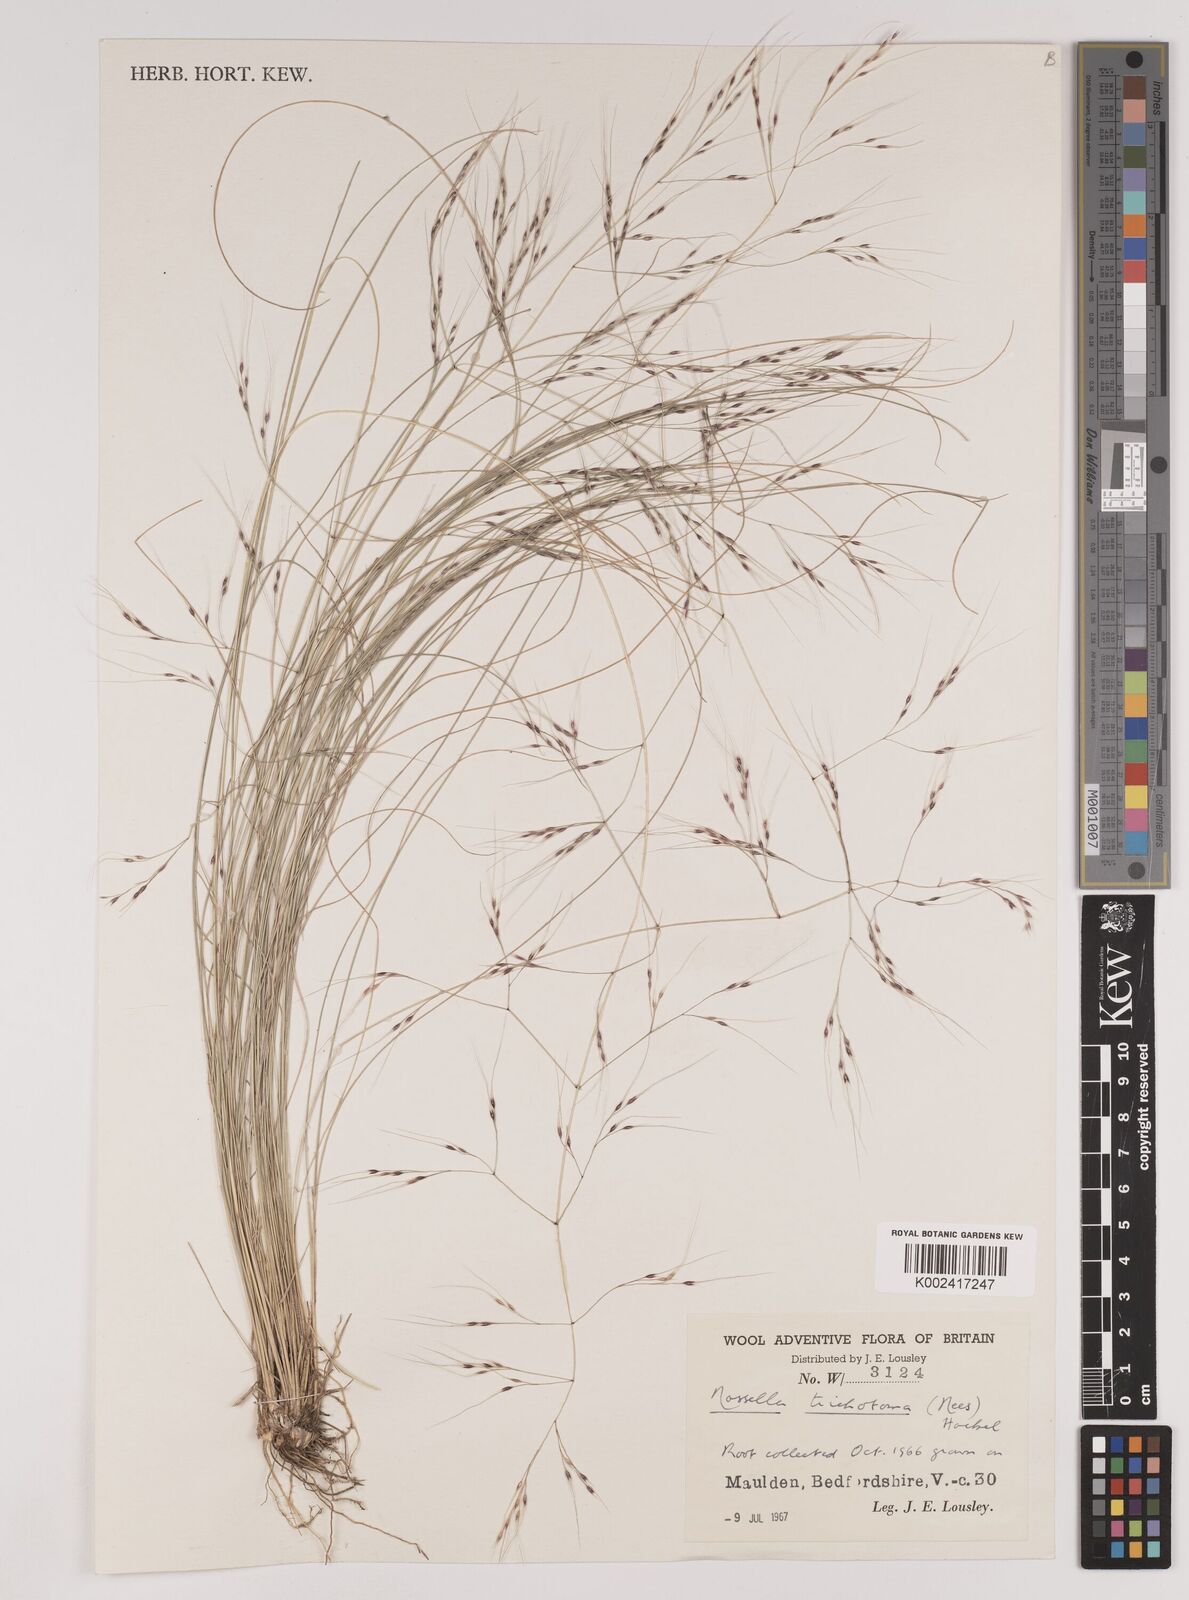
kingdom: Plantae
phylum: Tracheophyta
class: Liliopsida
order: Poales
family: Poaceae
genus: Nassella
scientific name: Nassella trichotoma
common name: Serrated tussock grass
